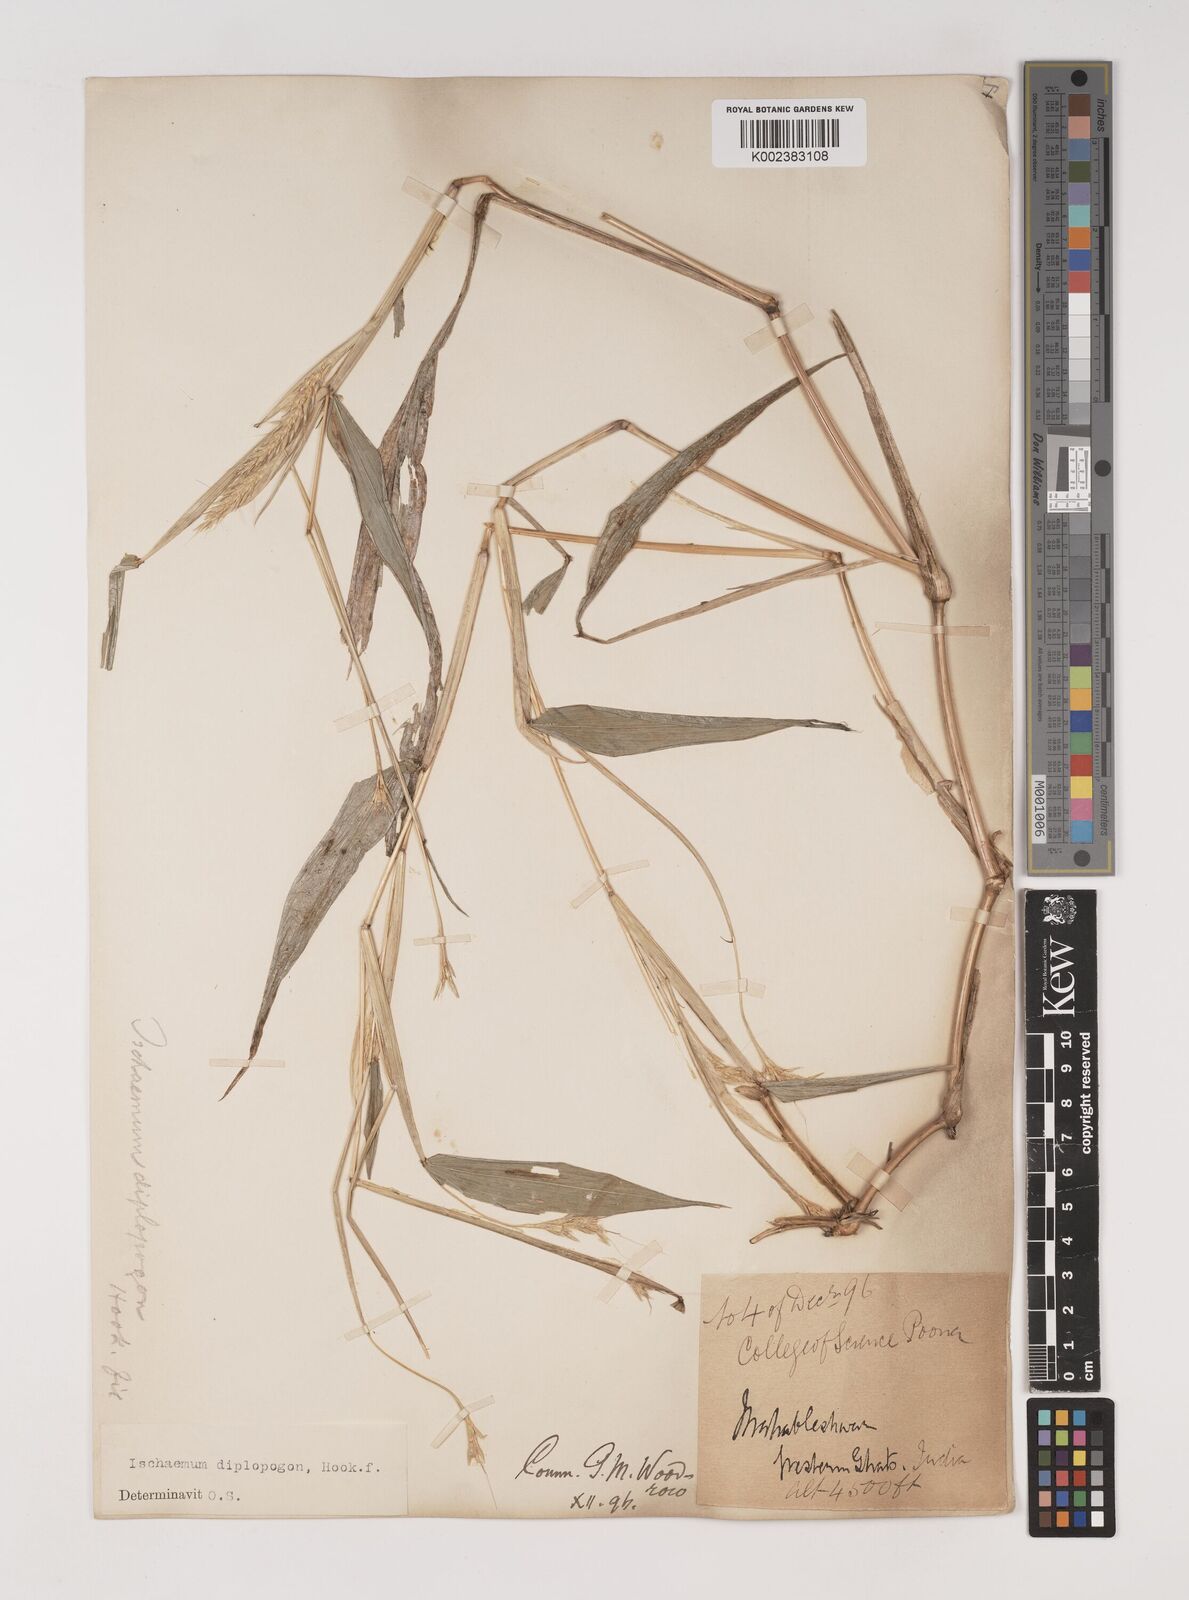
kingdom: Plantae
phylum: Tracheophyta
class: Liliopsida
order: Poales
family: Poaceae
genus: Ischaemum
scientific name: Ischaemum diplopogon
